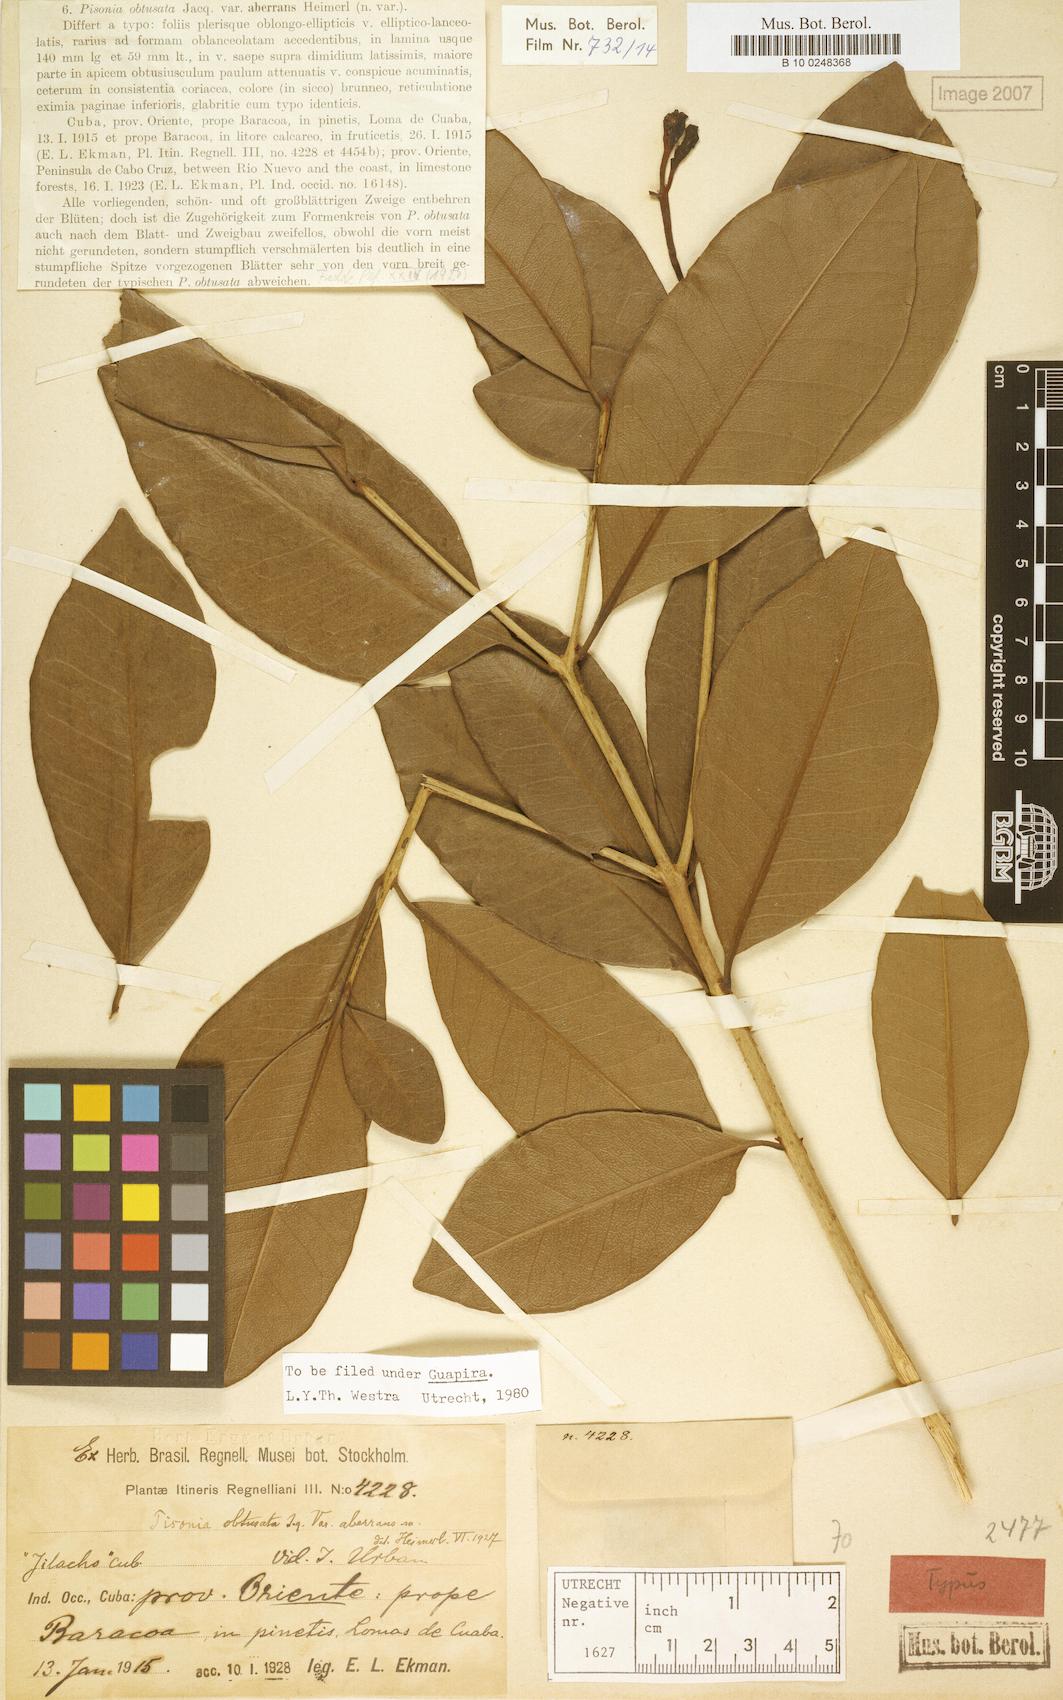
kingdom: Plantae
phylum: Tracheophyta
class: Magnoliopsida
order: Caryophyllales
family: Nyctaginaceae
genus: Guapira
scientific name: Guapira obtusata
